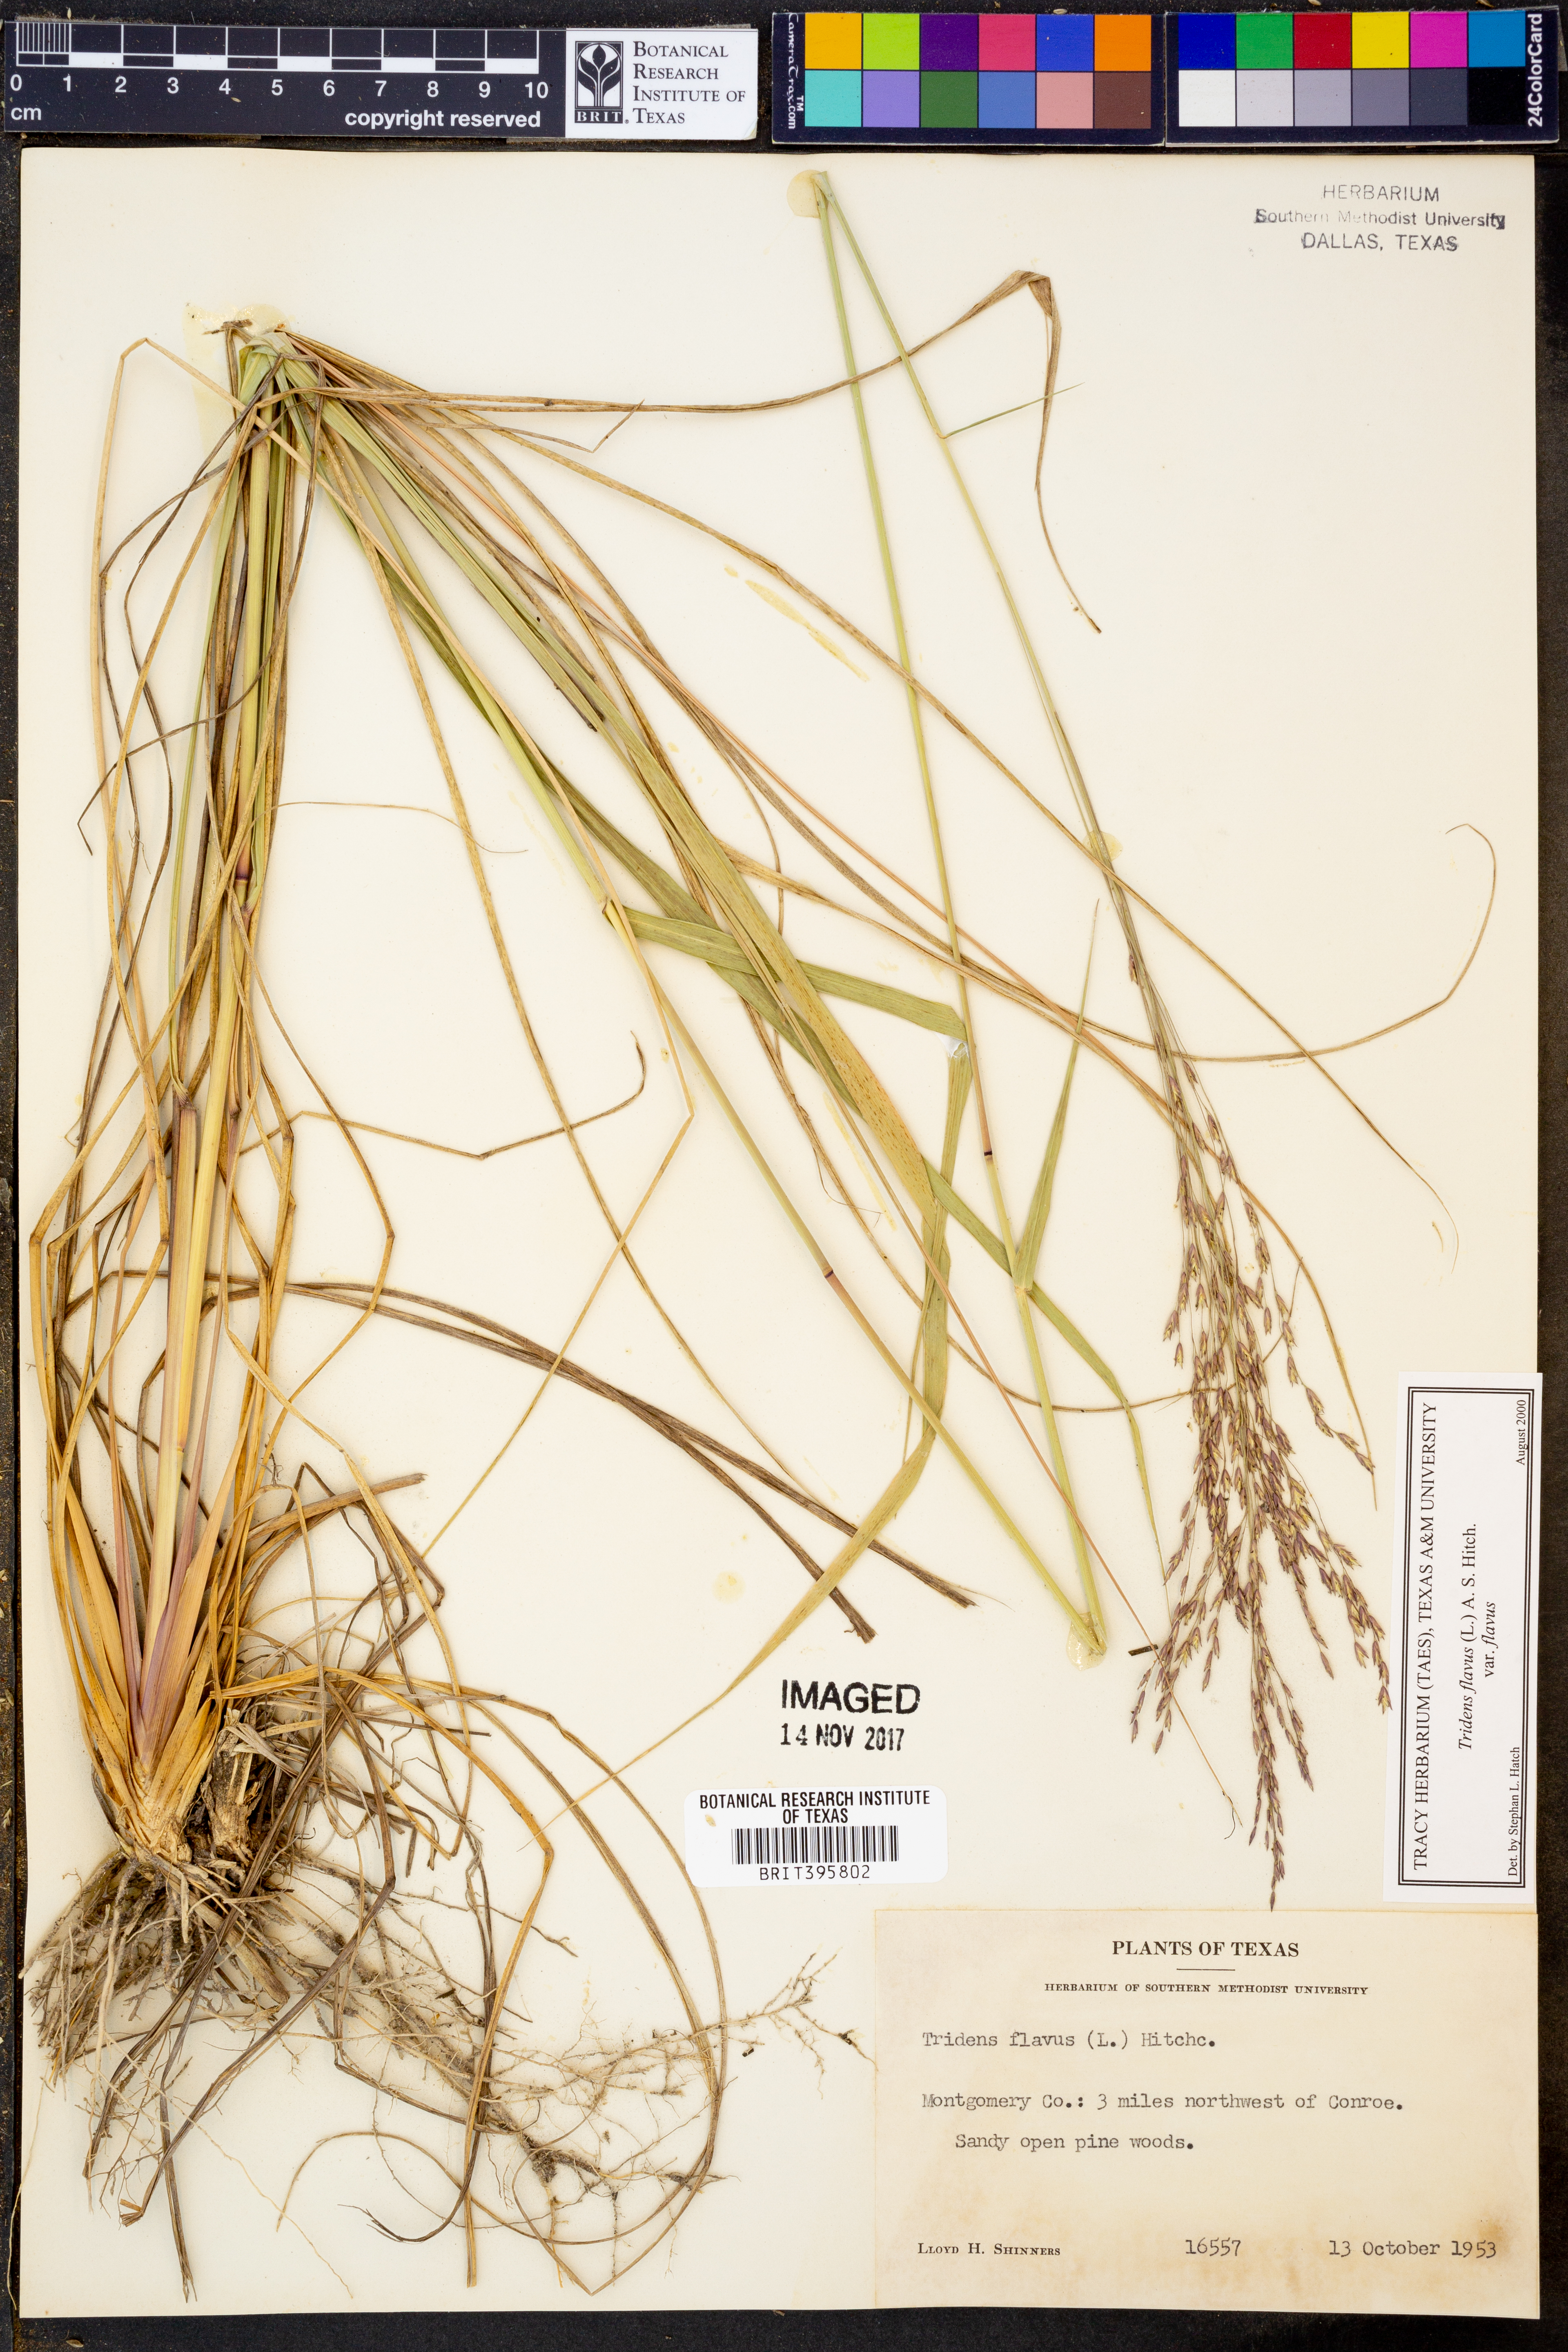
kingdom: Plantae
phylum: Tracheophyta
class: Liliopsida
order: Poales
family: Poaceae
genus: Tridens
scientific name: Tridens flavus
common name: Purpletop
